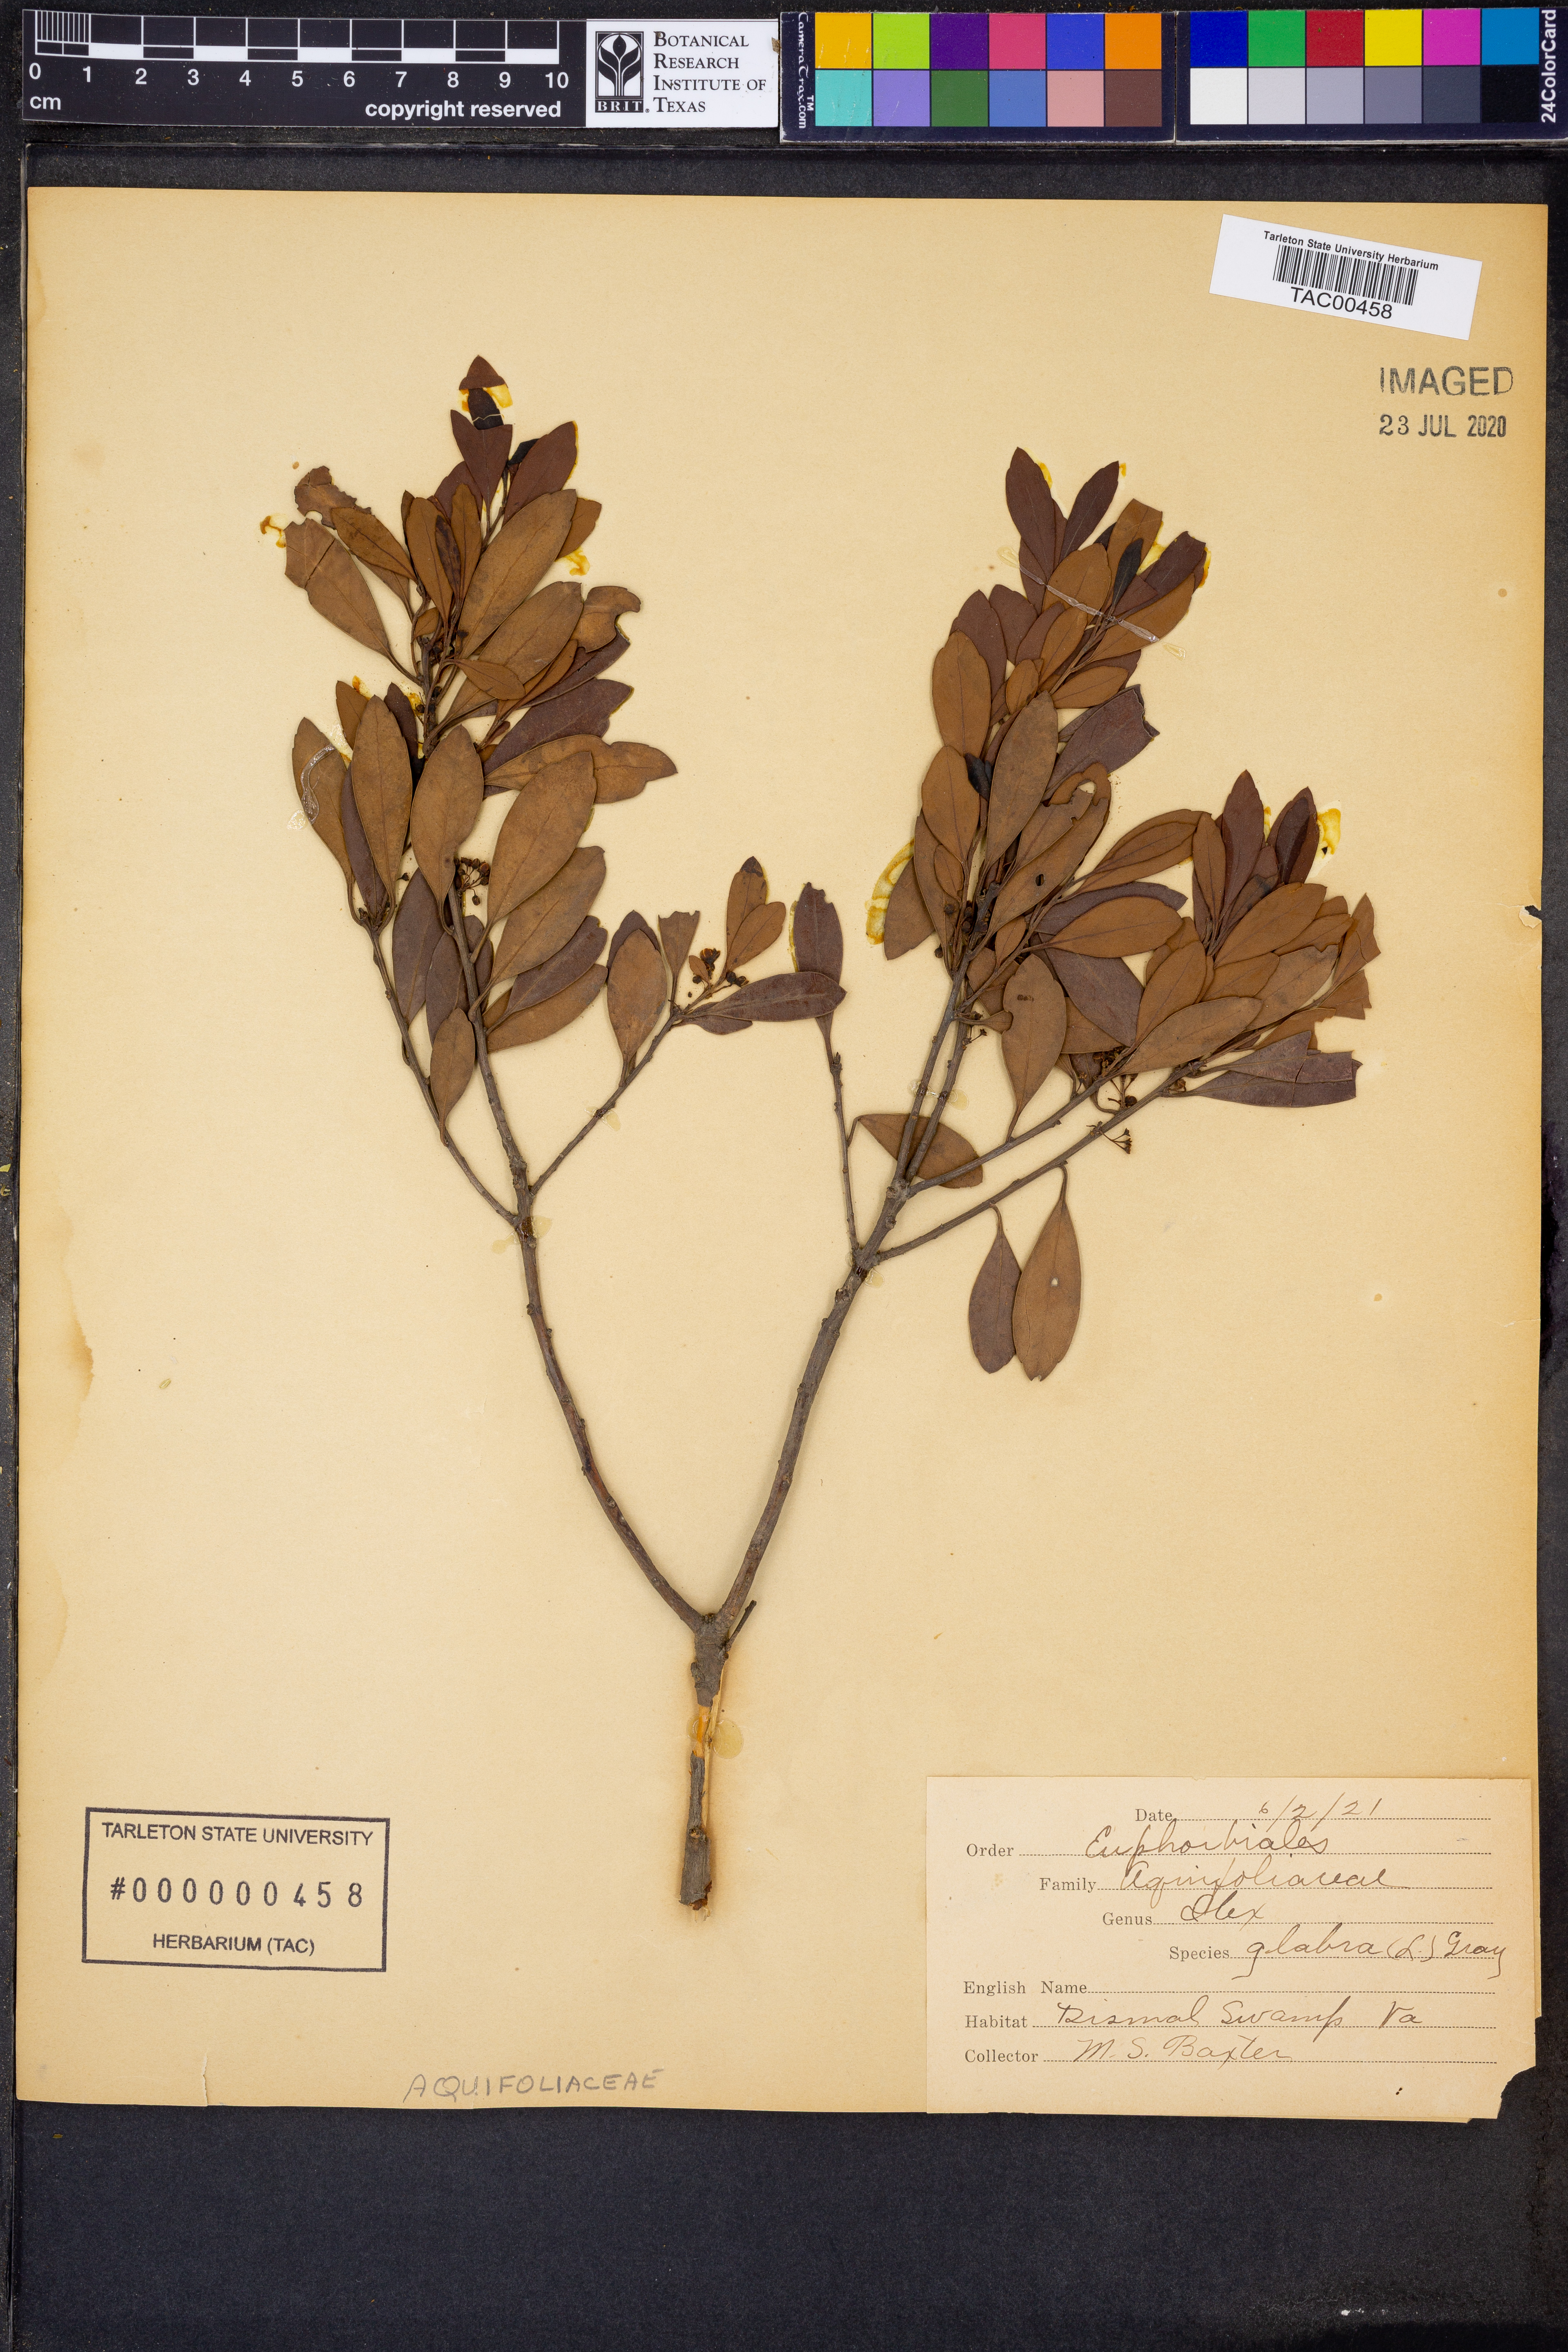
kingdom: Plantae
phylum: Tracheophyta
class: Magnoliopsida
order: Aquifoliales
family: Aquifoliaceae
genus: Ilex
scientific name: Ilex glabra
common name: Bitter gallberry
